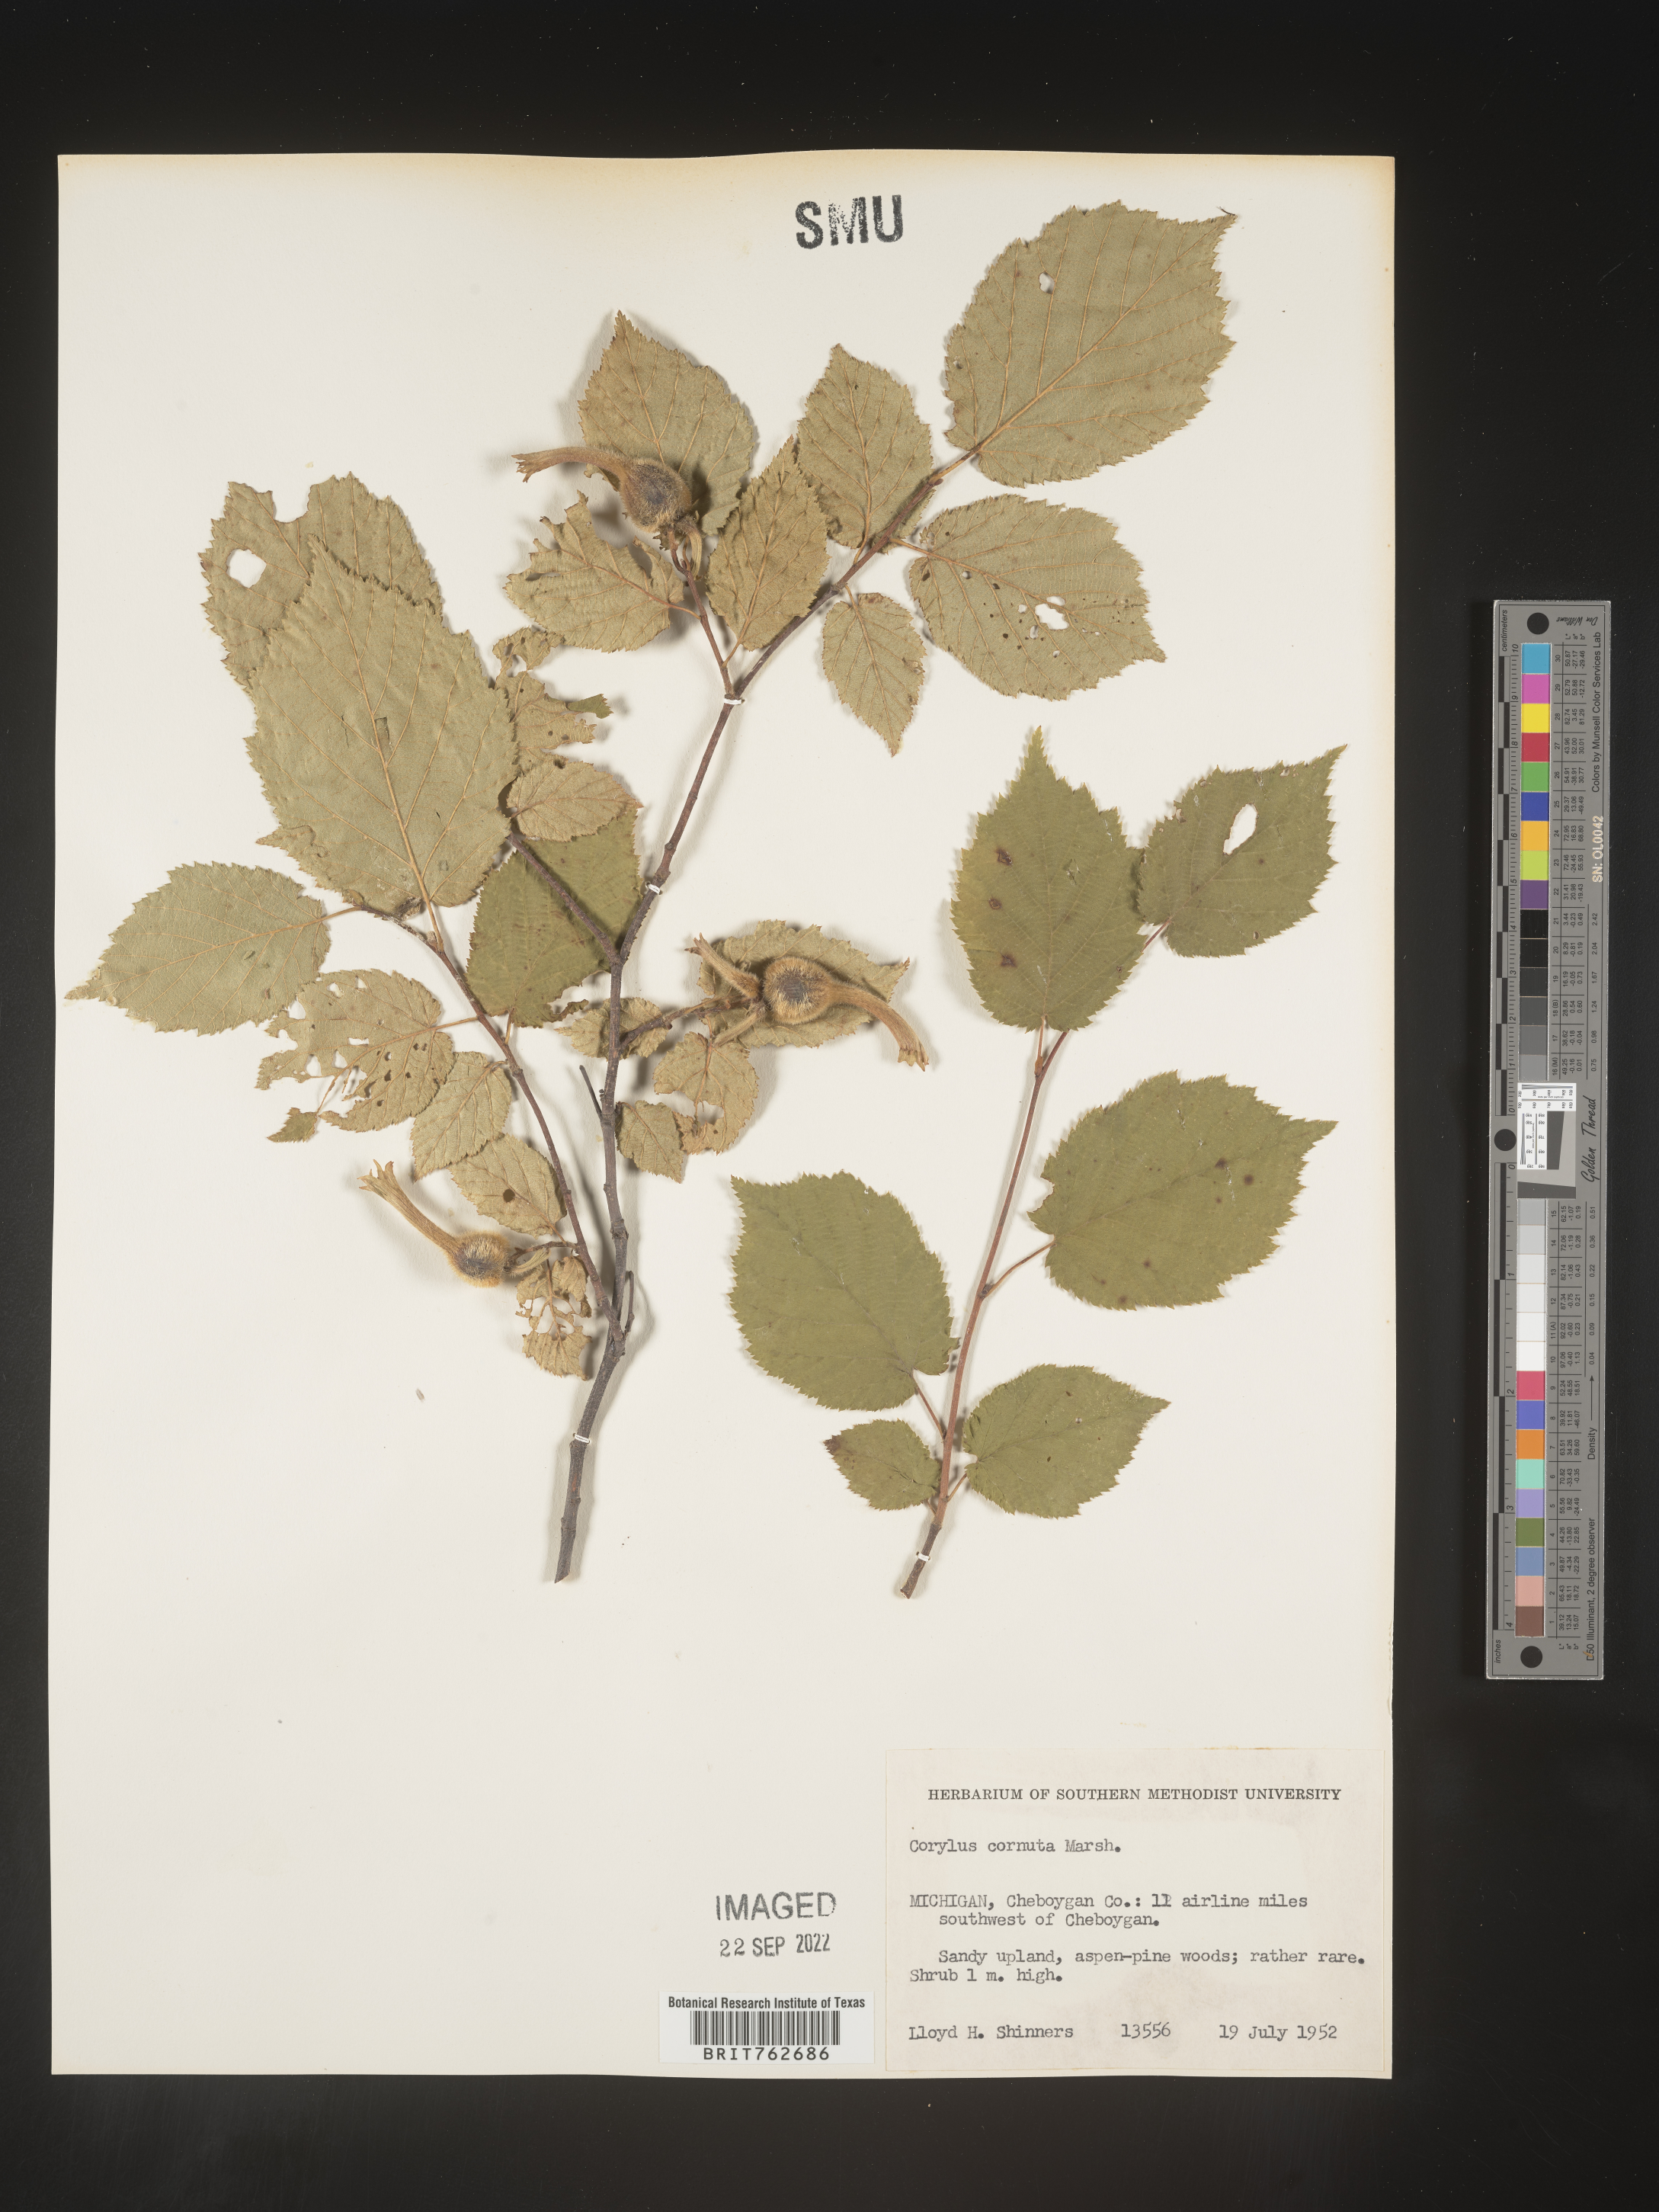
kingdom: Plantae
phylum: Tracheophyta
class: Magnoliopsida
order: Fagales
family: Betulaceae
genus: Corylus
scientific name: Corylus cornuta
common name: Beaked hazel
